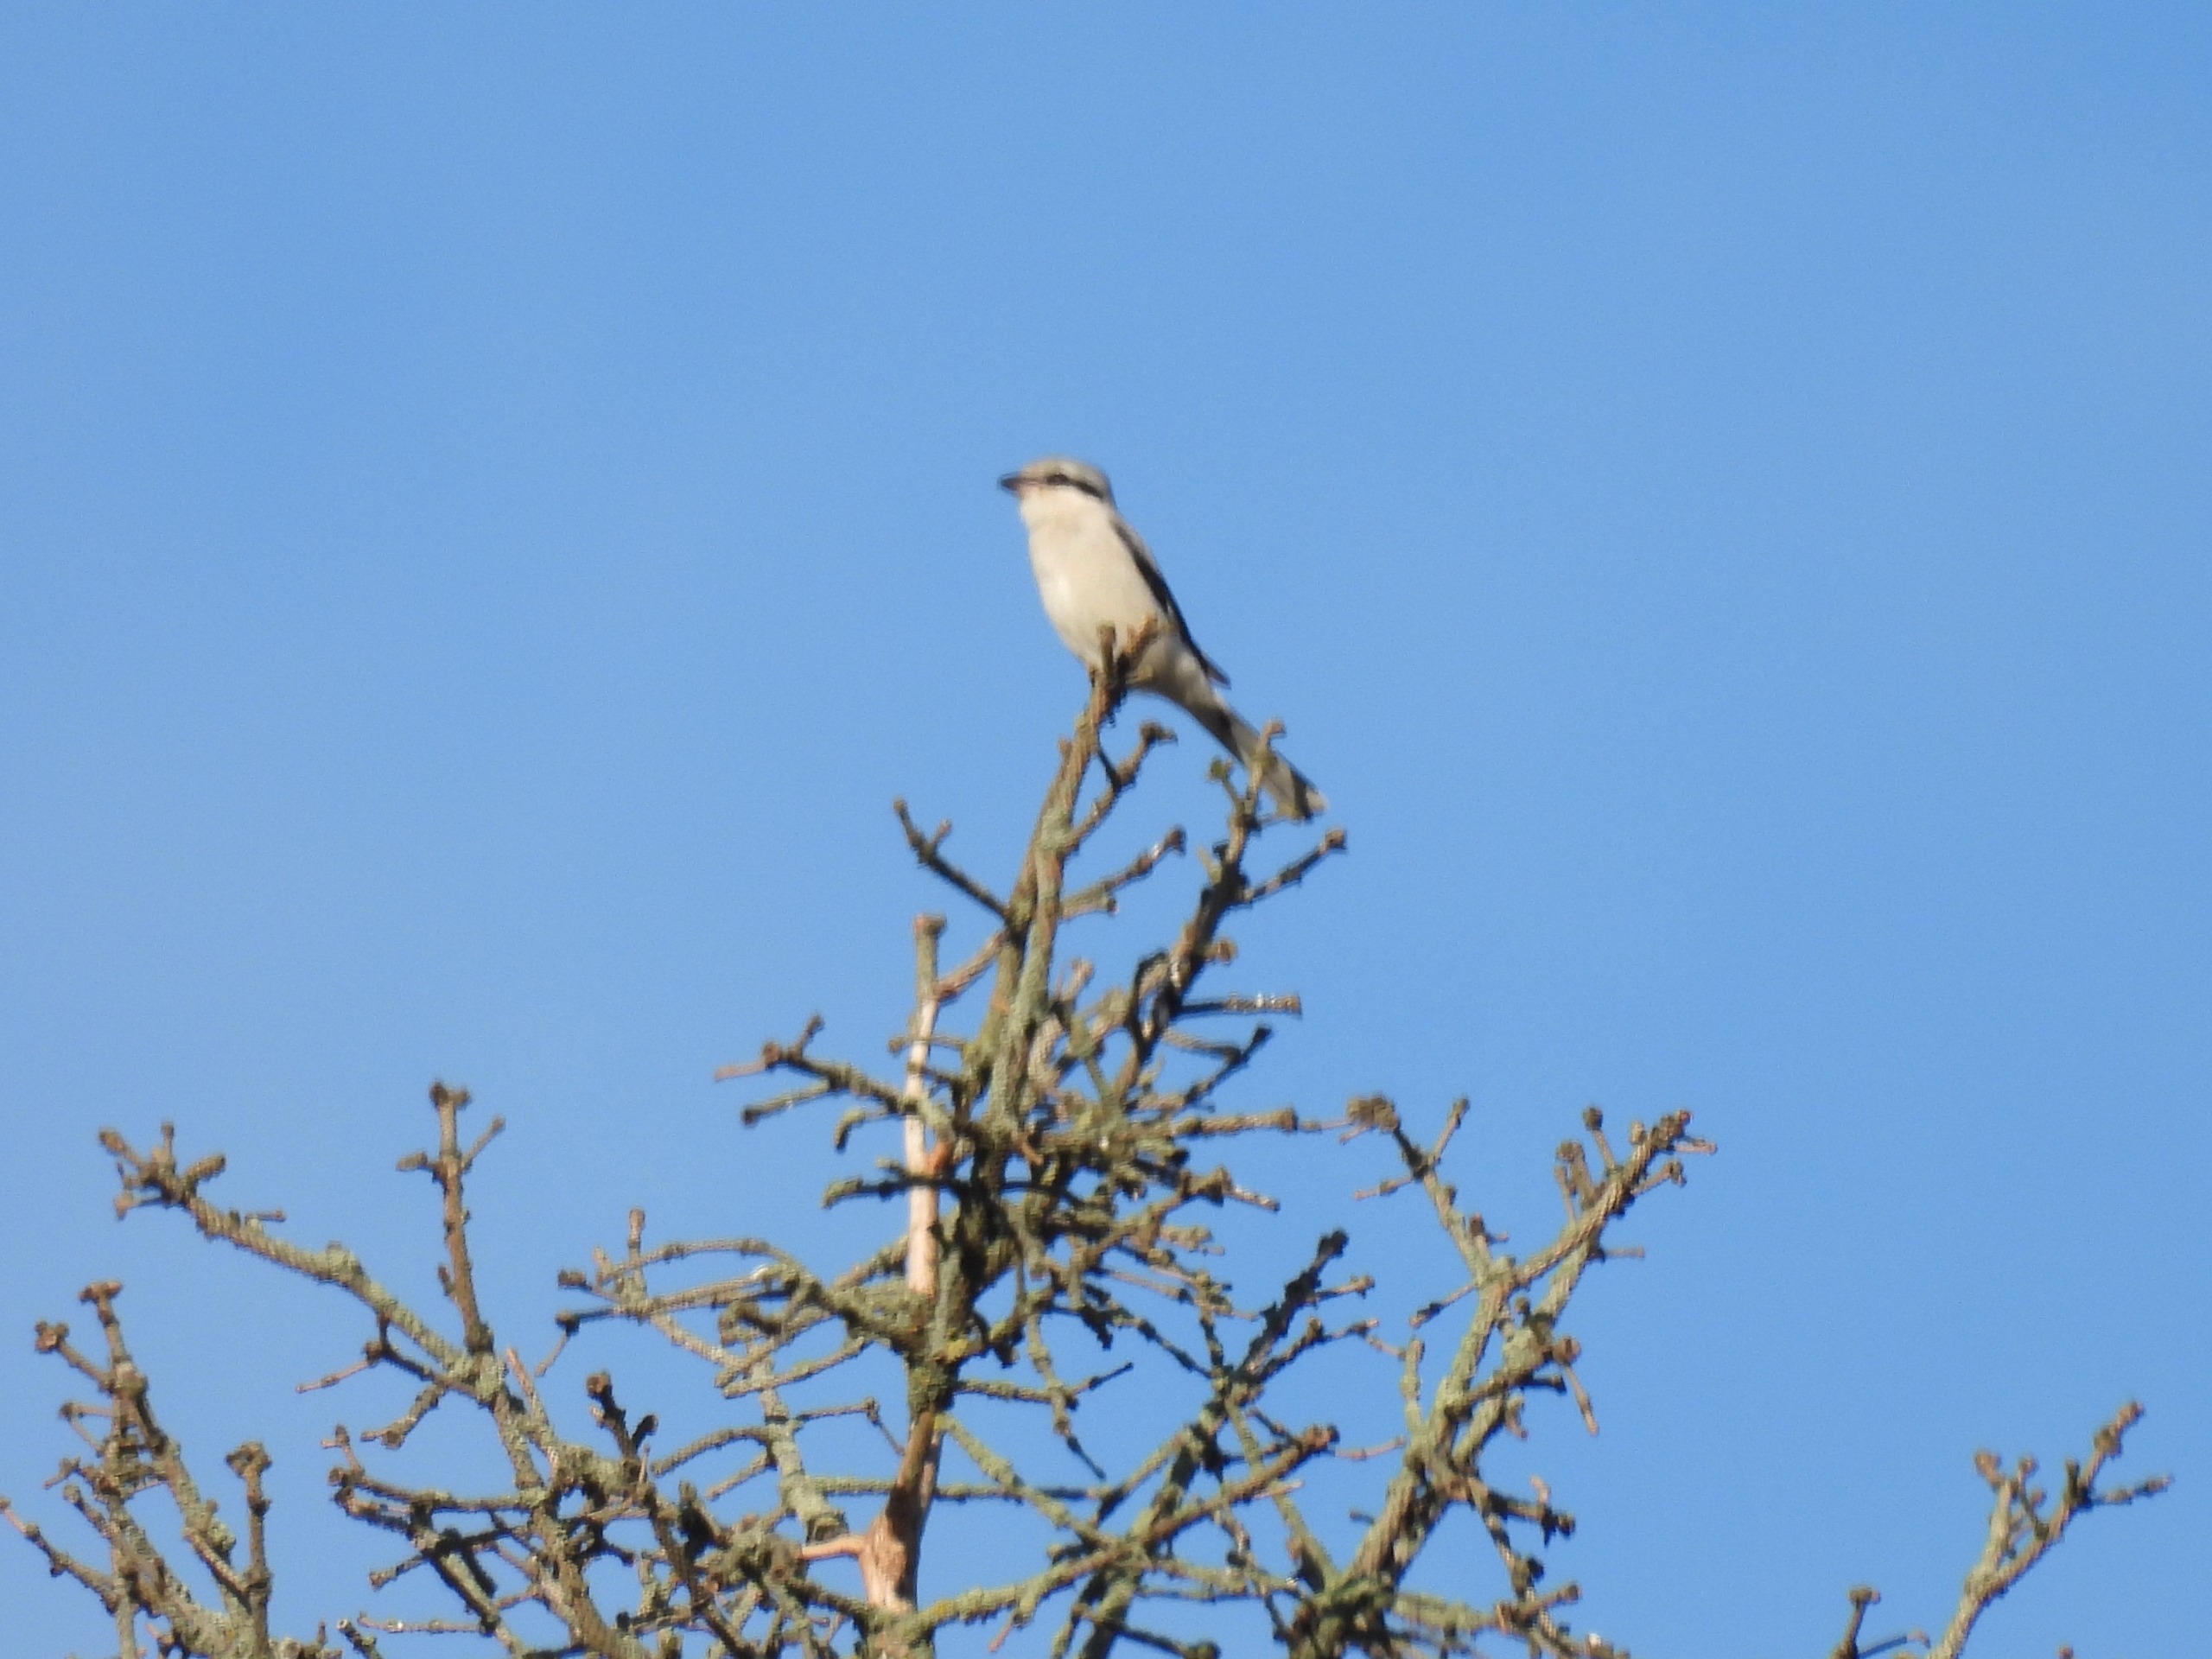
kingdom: Animalia
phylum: Chordata
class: Aves
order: Passeriformes
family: Laniidae
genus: Lanius
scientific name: Lanius excubitor
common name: Stor tornskade
